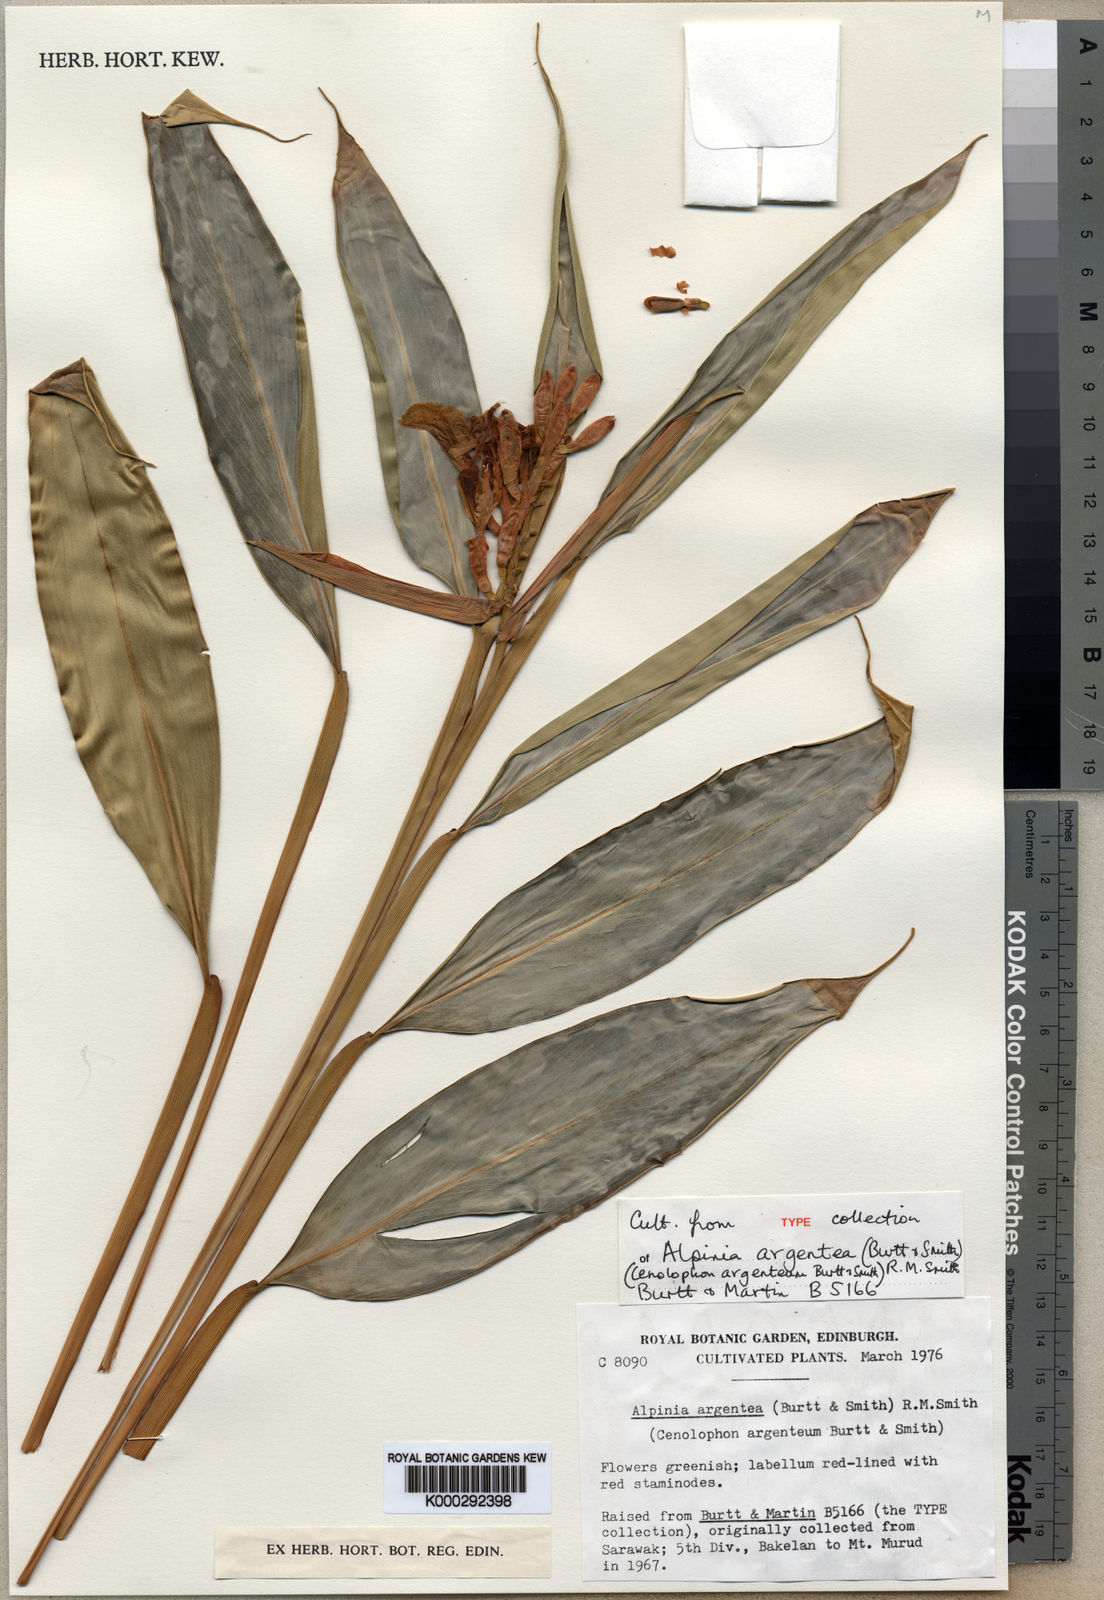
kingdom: Plantae
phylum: Tracheophyta
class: Liliopsida
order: Zingiberales
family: Zingiberaceae
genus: Alpinia
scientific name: Alpinia argentea
